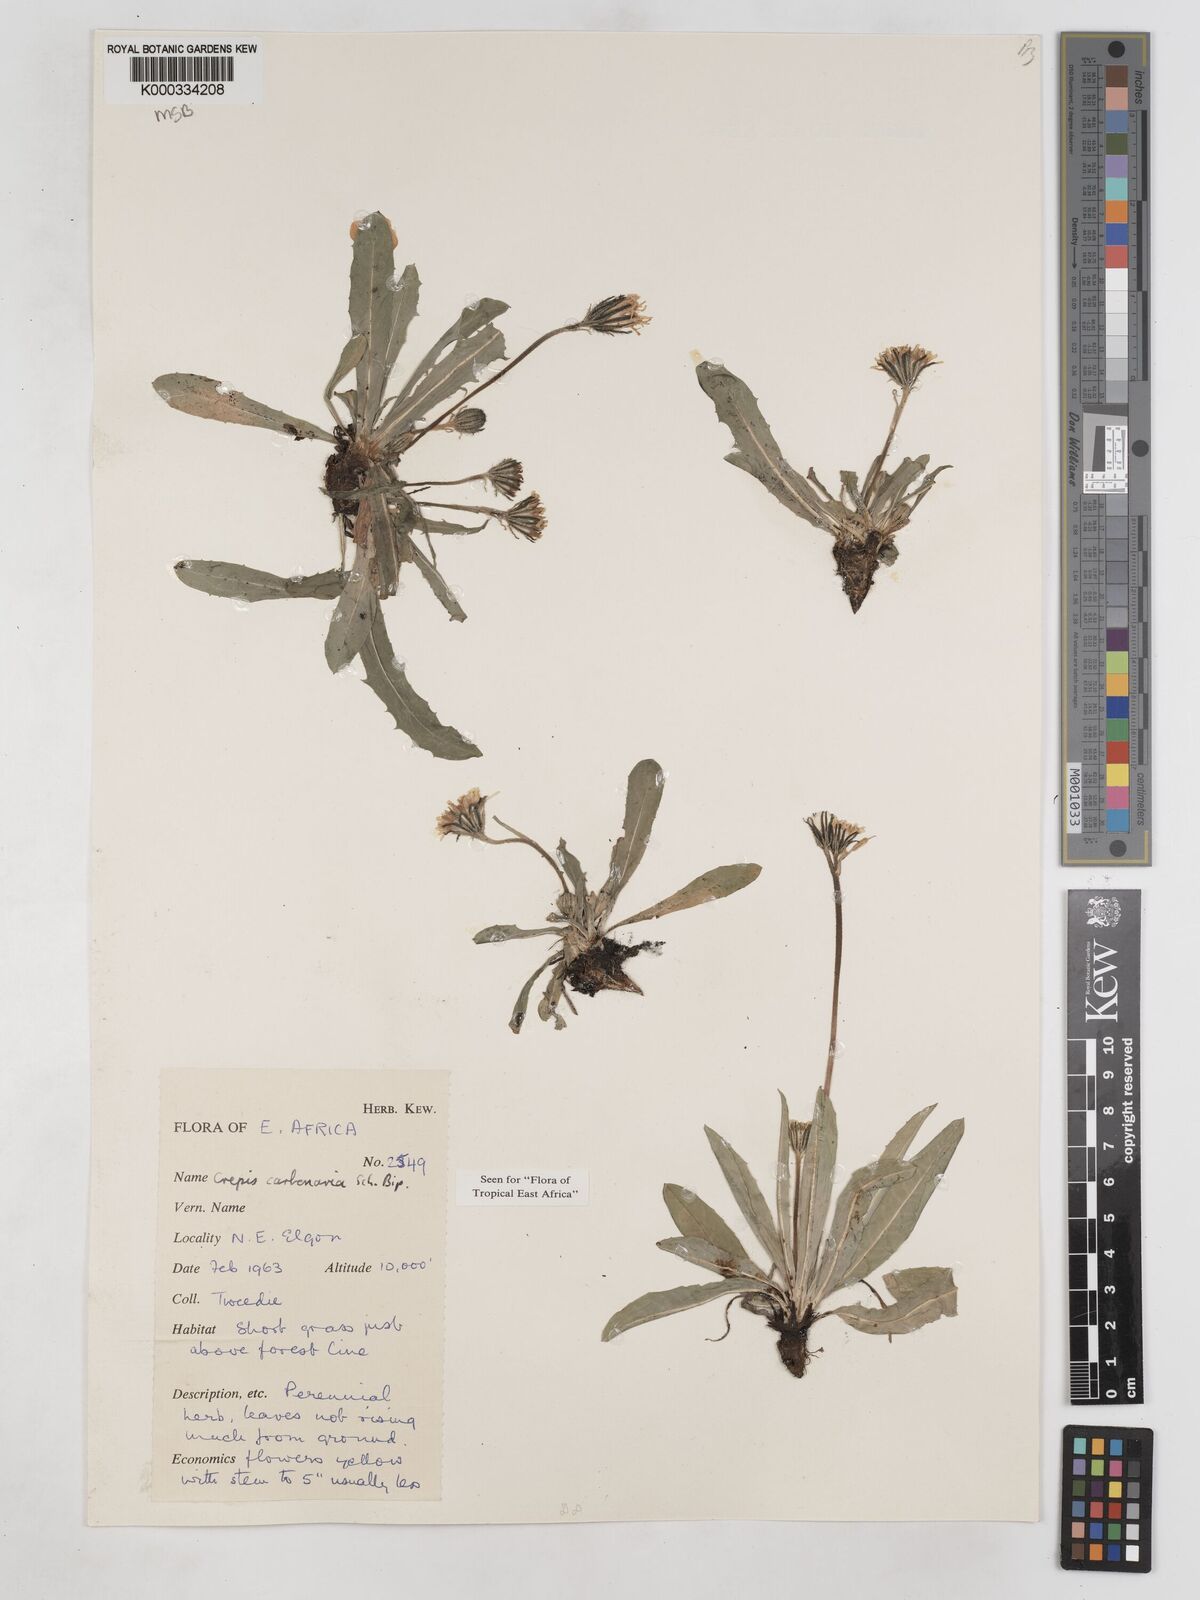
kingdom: Plantae
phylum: Tracheophyta
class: Magnoliopsida
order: Asterales
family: Asteraceae
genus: Crepis
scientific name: Crepis carbonaria
